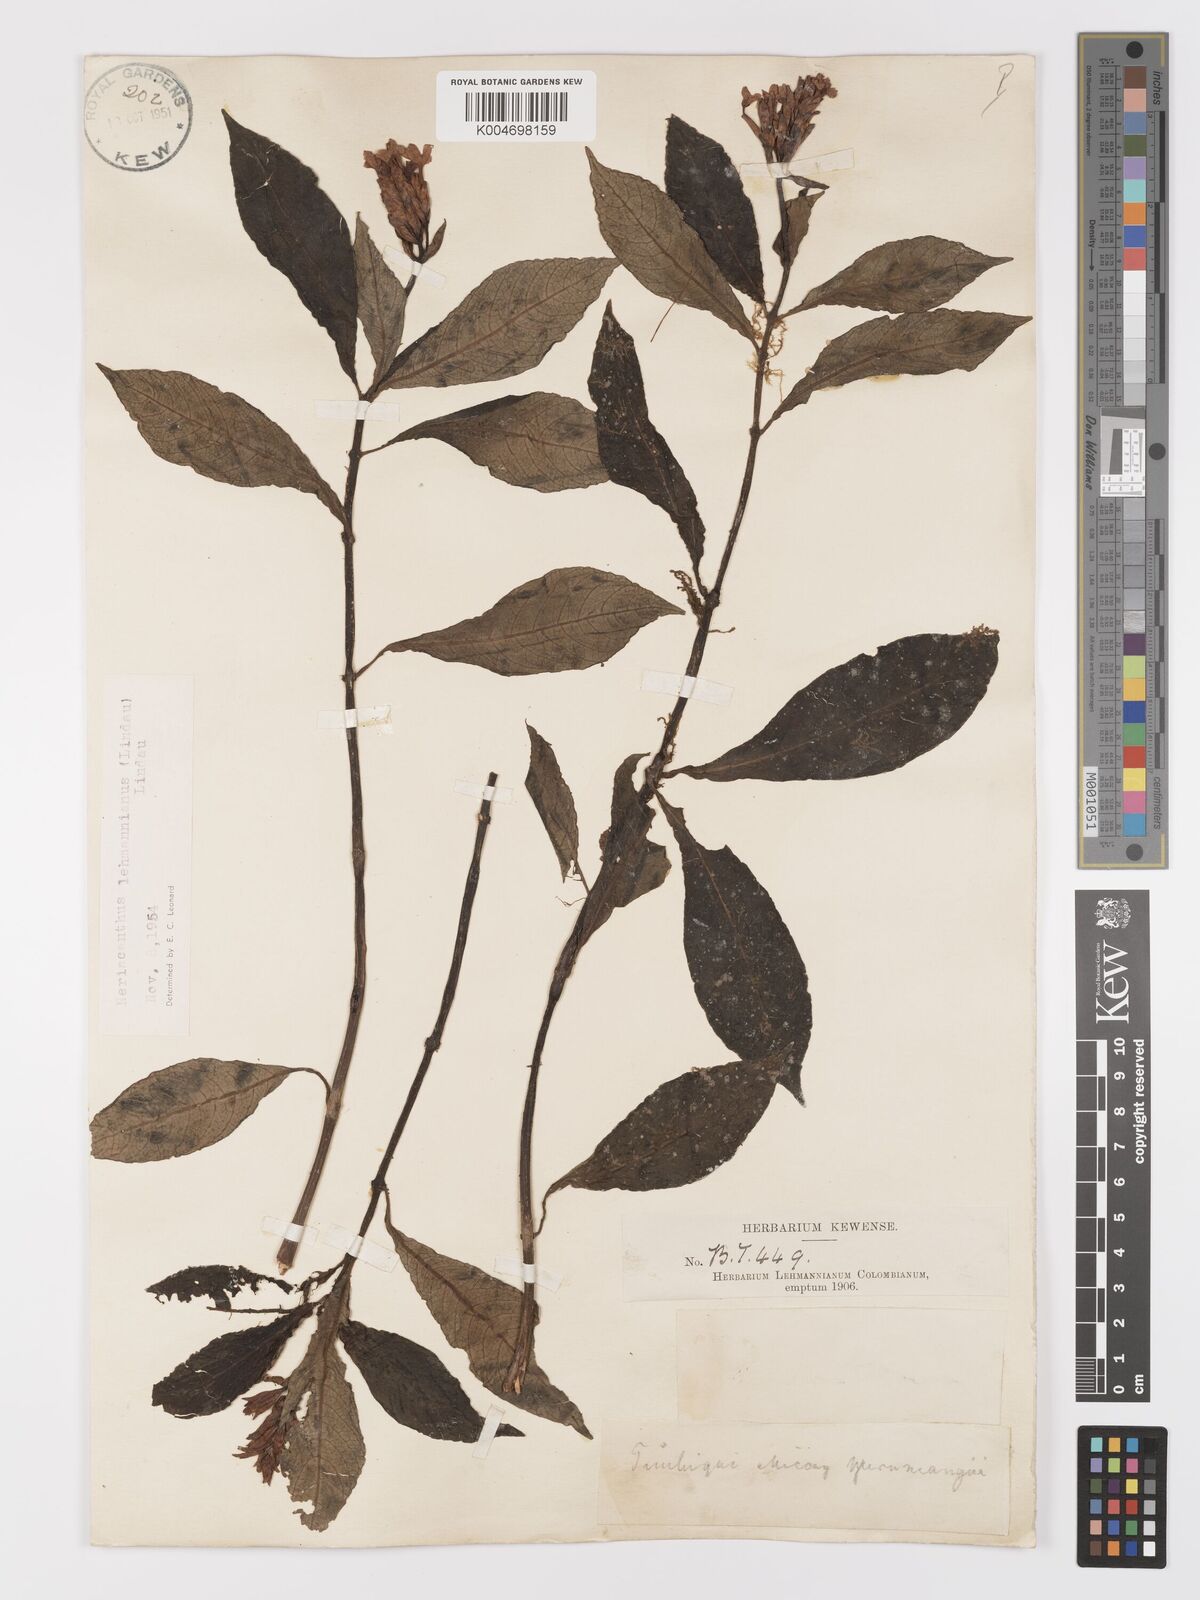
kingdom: Plantae
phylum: Tracheophyta
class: Magnoliopsida
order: Lamiales
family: Acanthaceae
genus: Neriacanthus
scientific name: Neriacanthus lehmannianus
